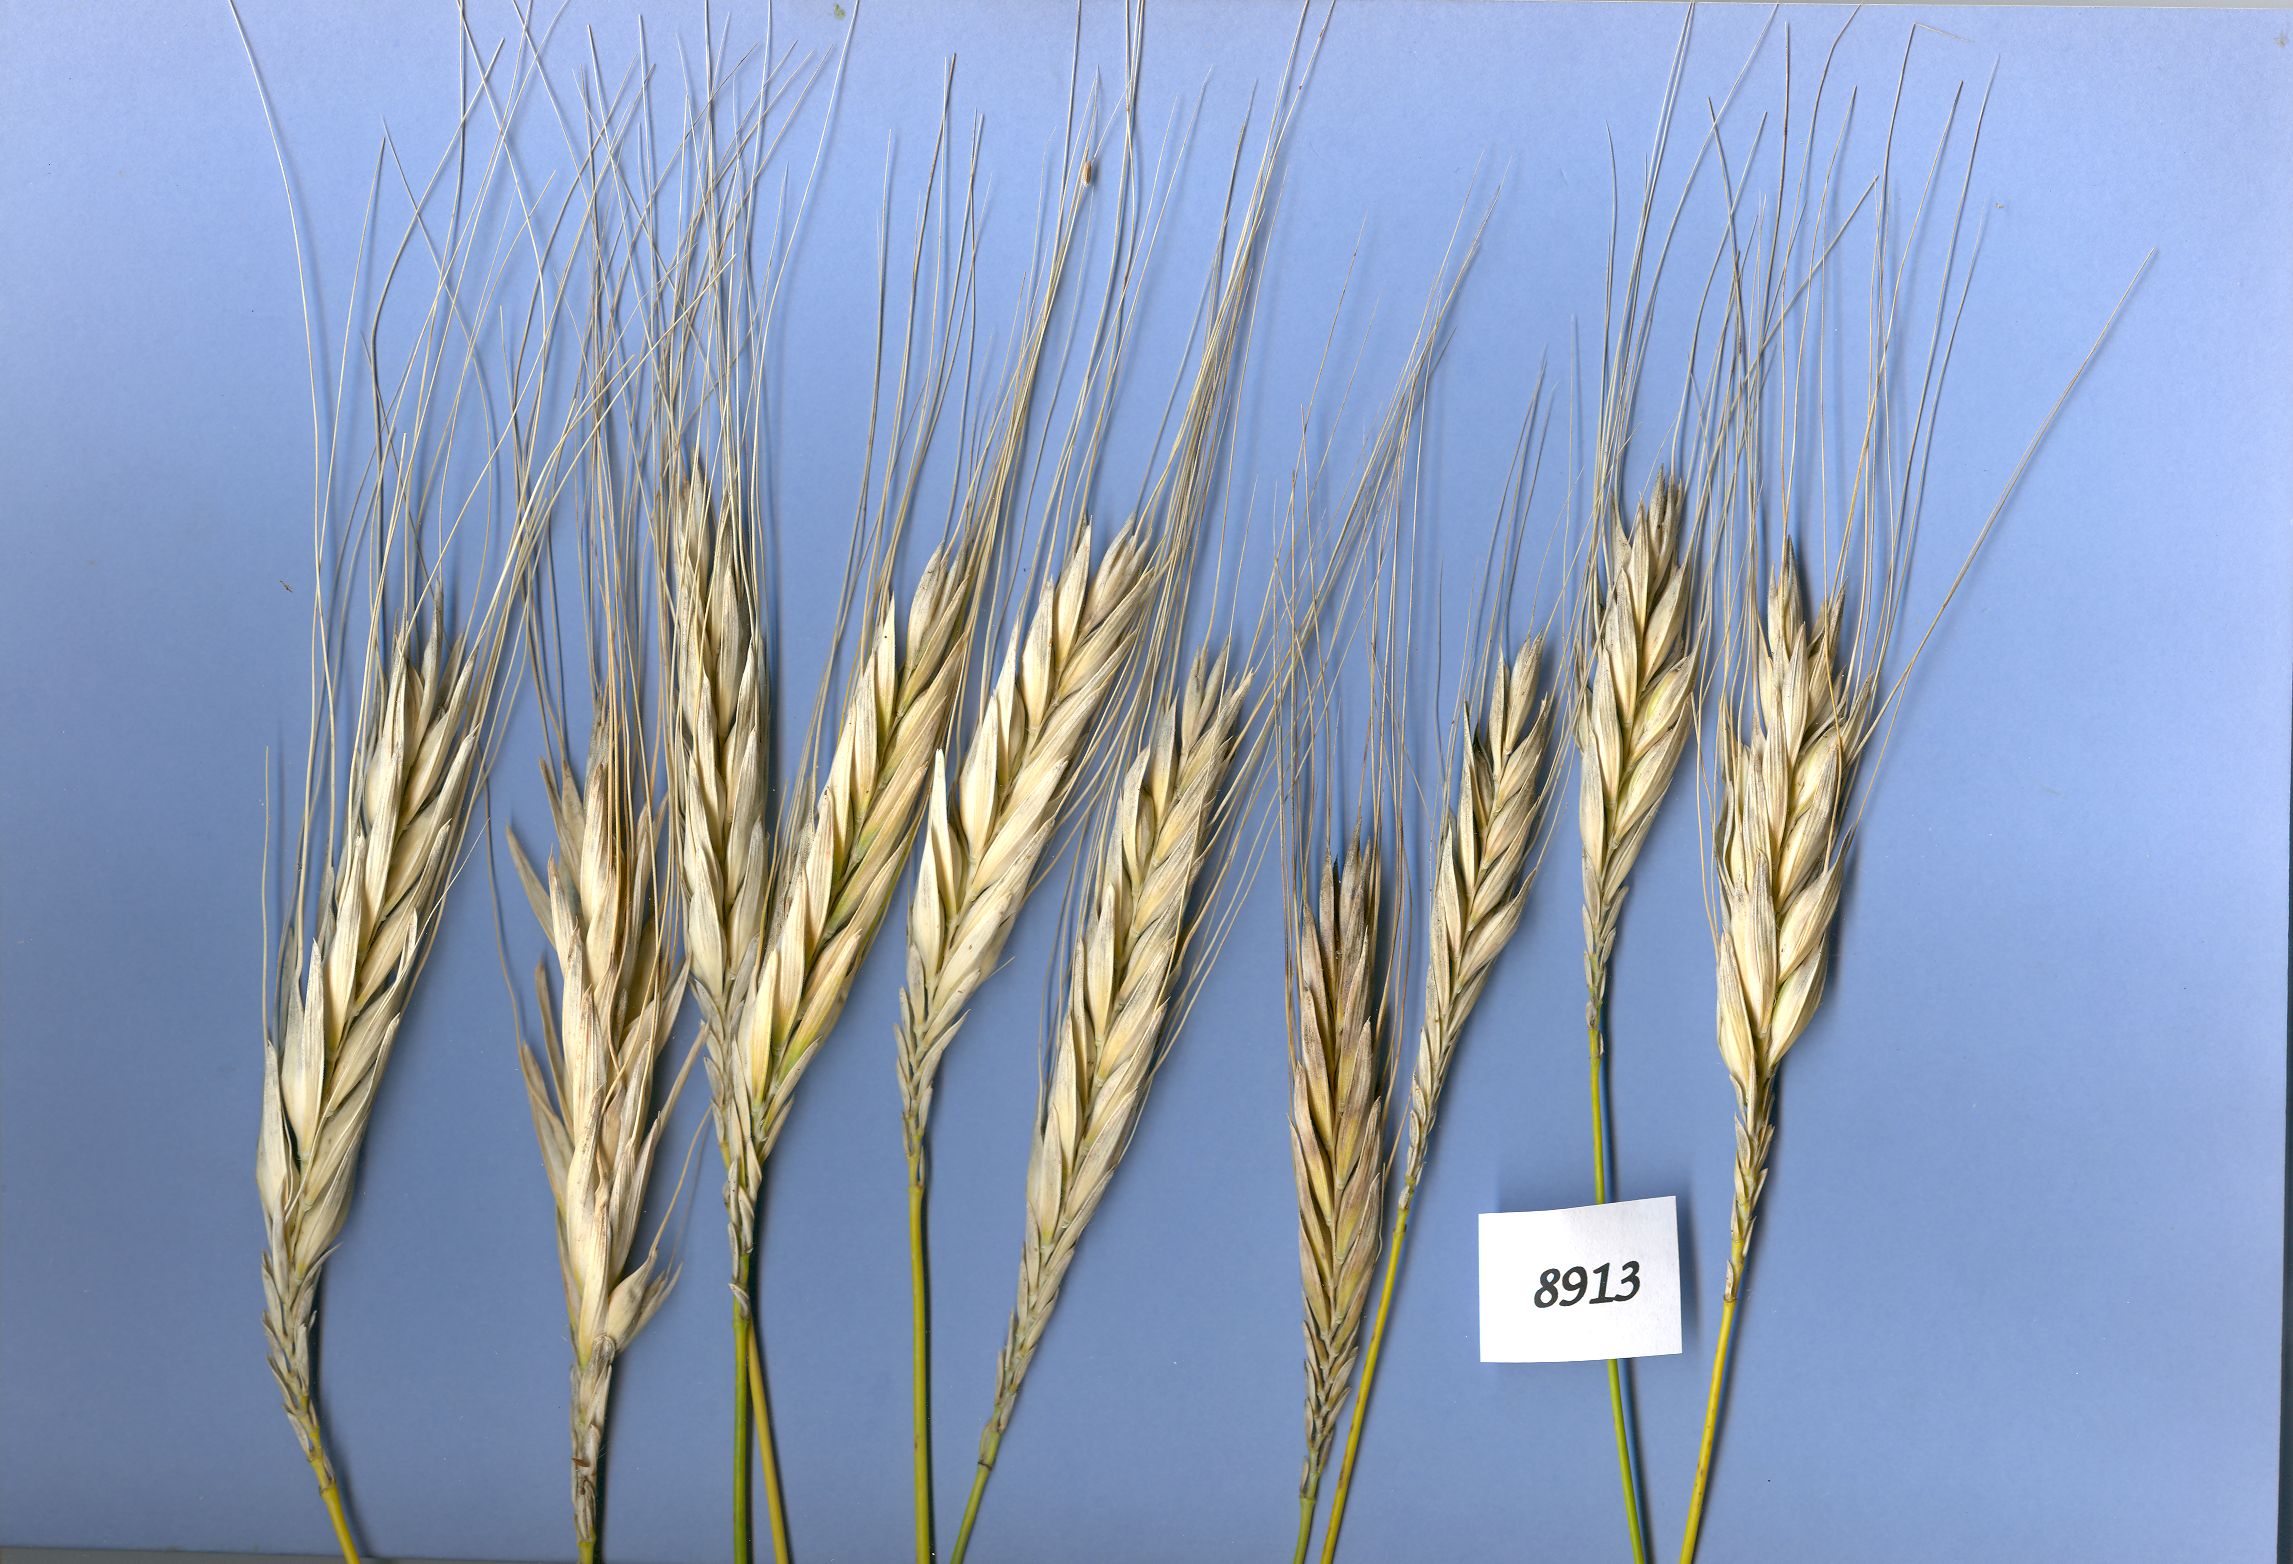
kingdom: Plantae
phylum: Tracheophyta
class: Liliopsida
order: Poales
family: Poaceae
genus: Triticum
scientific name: Triticum turgidum
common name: Rivet wheat
